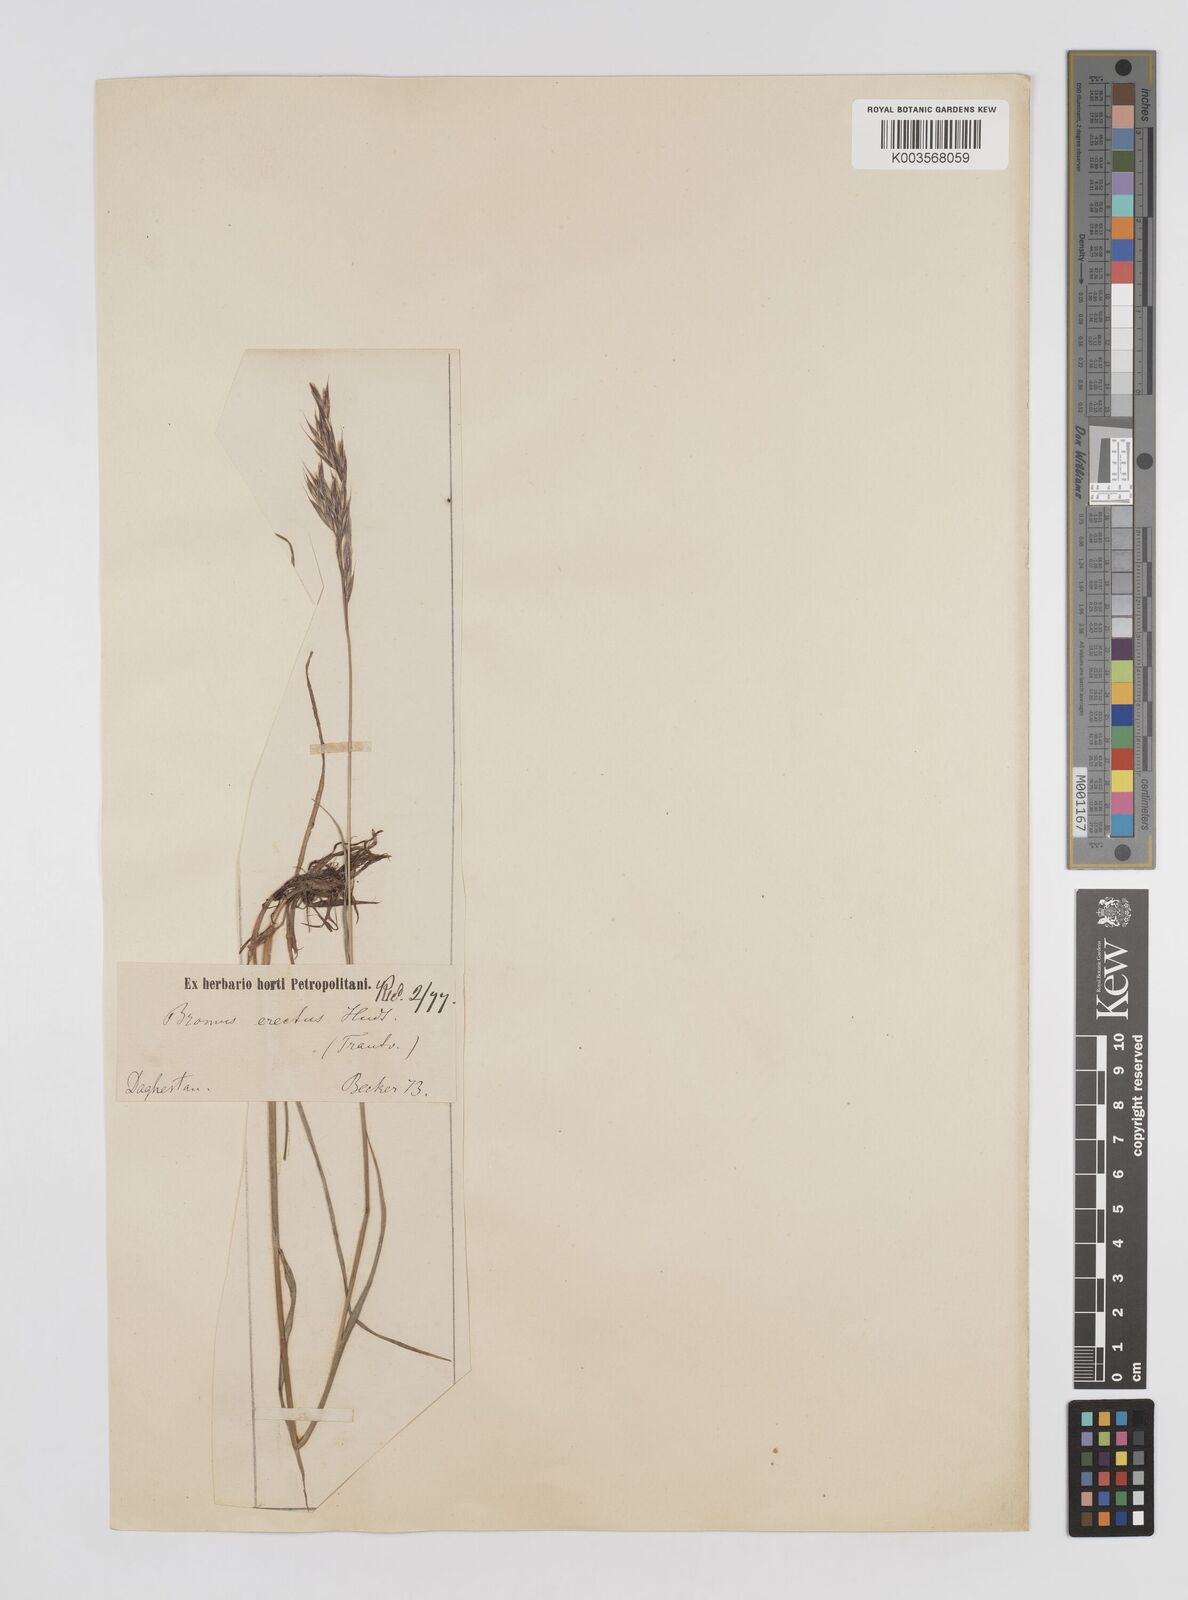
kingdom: Plantae
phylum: Tracheophyta
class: Liliopsida
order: Poales
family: Poaceae
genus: Bromus
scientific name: Bromus erectus
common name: Erect brome
